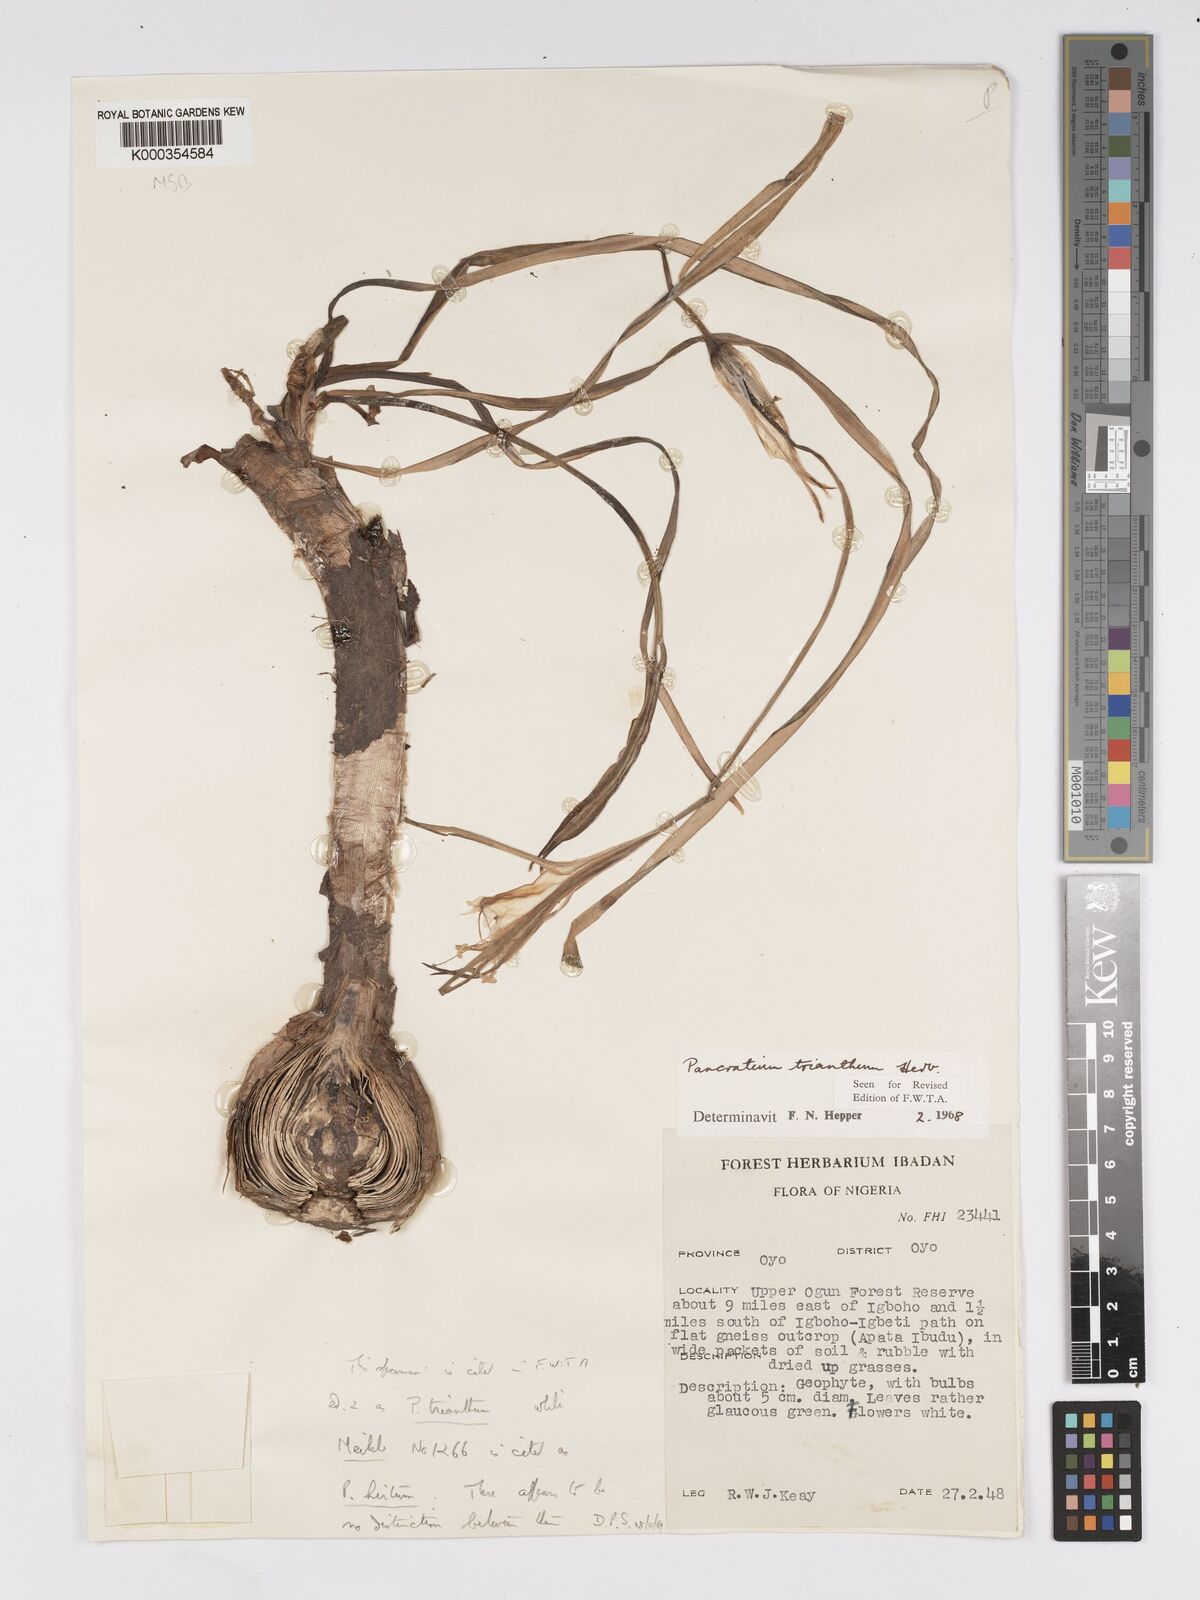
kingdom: Plantae
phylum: Tracheophyta
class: Liliopsida
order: Asparagales
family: Amaryllidaceae
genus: Pancratium
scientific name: Pancratium trianthum
